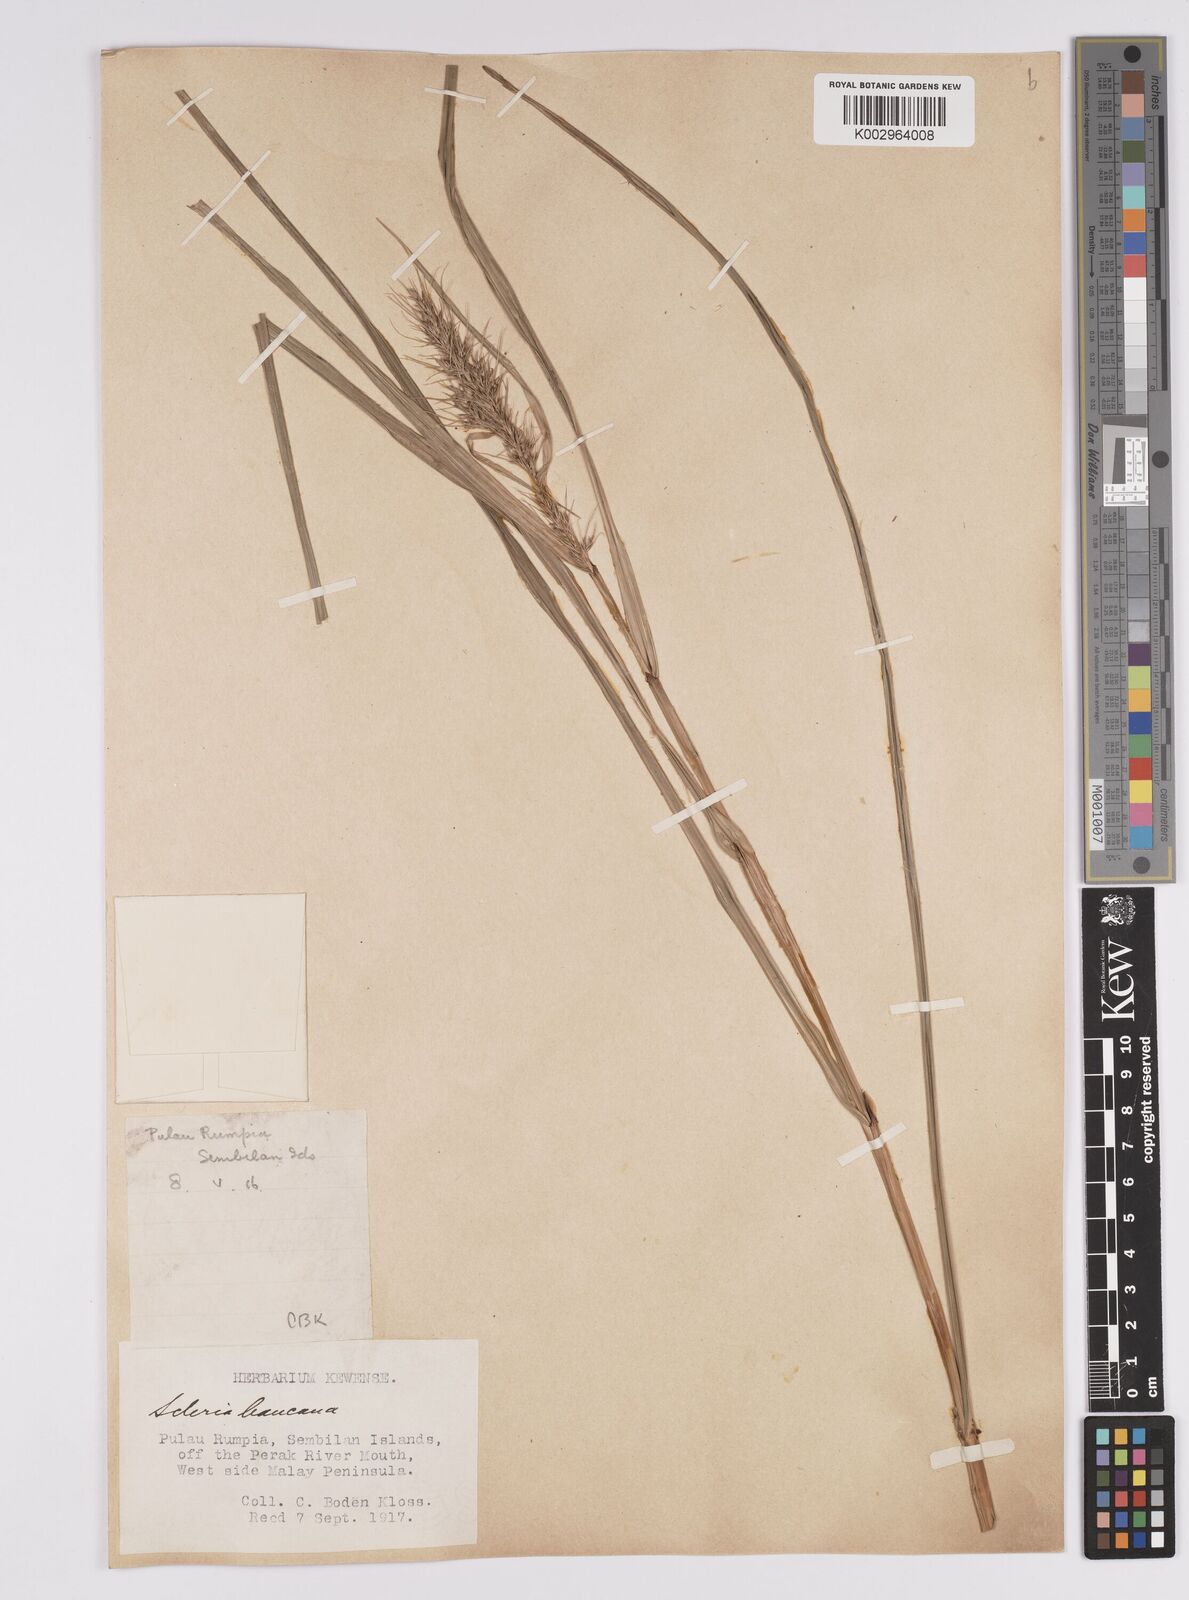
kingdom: Plantae
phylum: Tracheophyta
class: Liliopsida
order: Poales
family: Cyperaceae
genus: Scleria
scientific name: Scleria ciliaris
